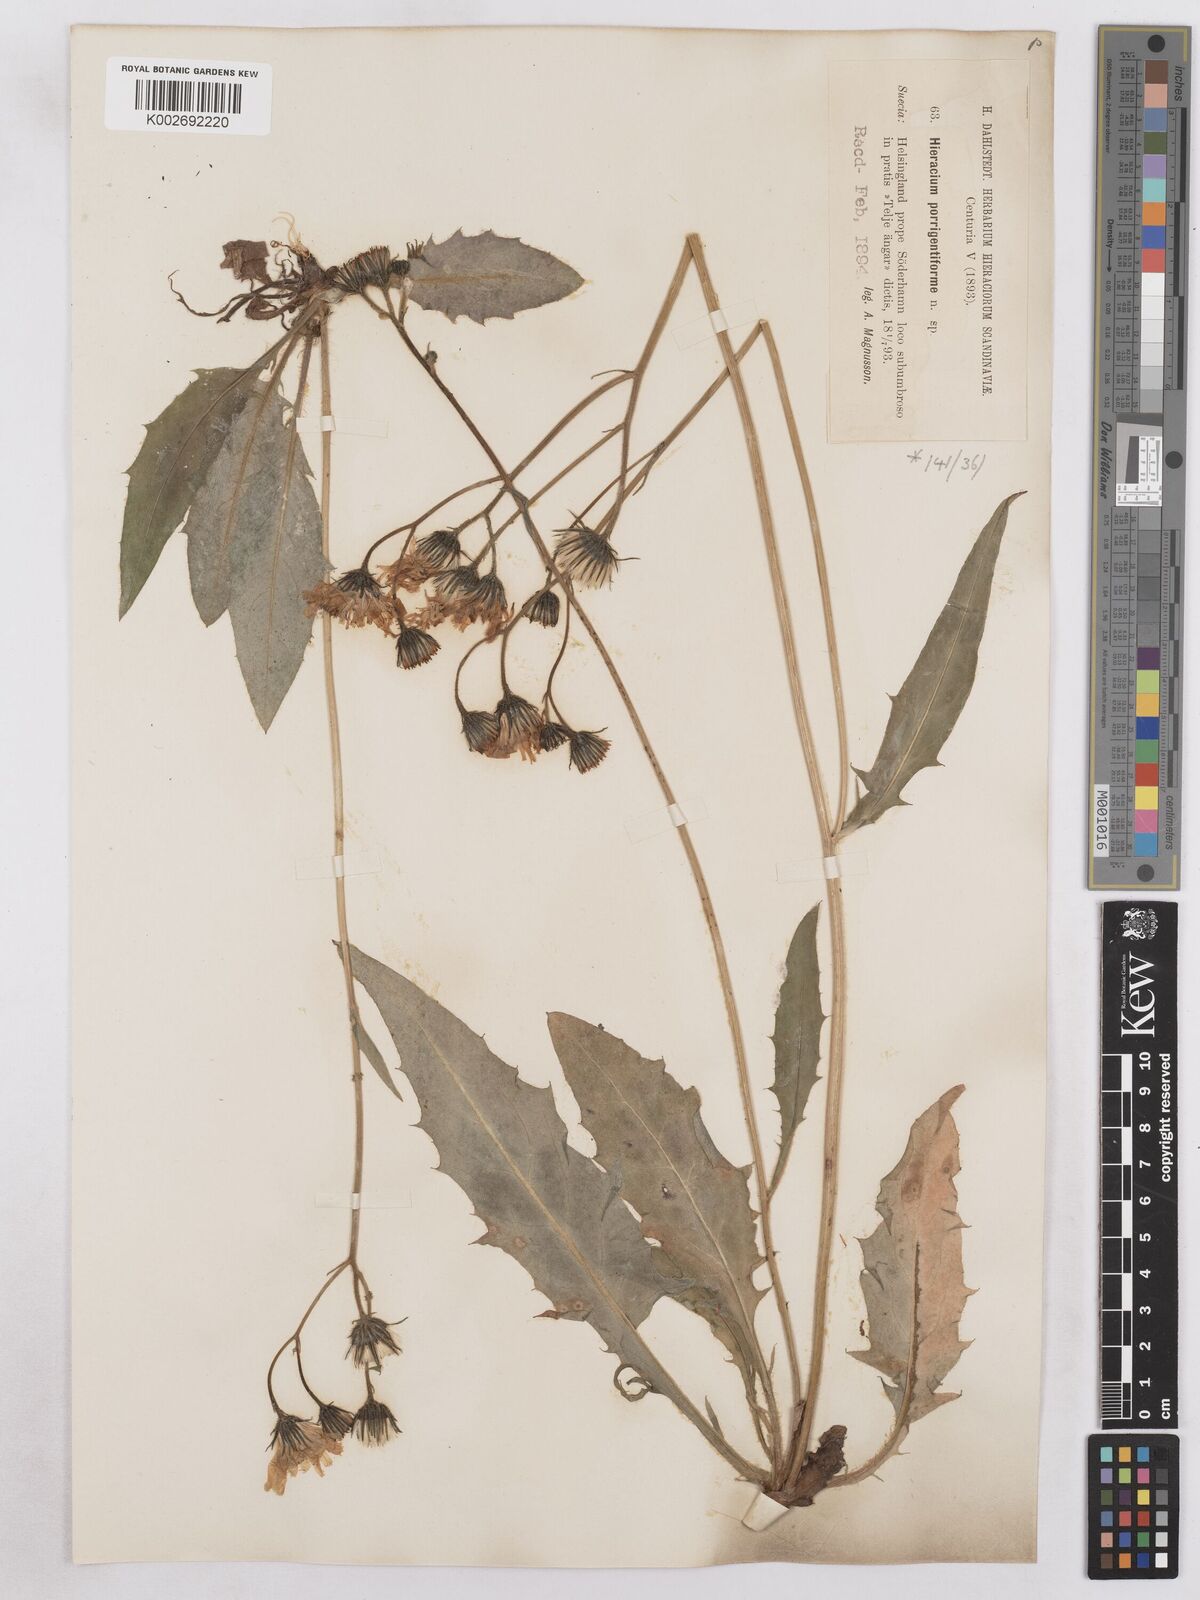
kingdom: Plantae
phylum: Tracheophyta
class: Magnoliopsida
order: Asterales
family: Asteraceae
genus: Hieracium
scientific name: Hieracium diaphanoides
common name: Fine-bracted hawkweed
